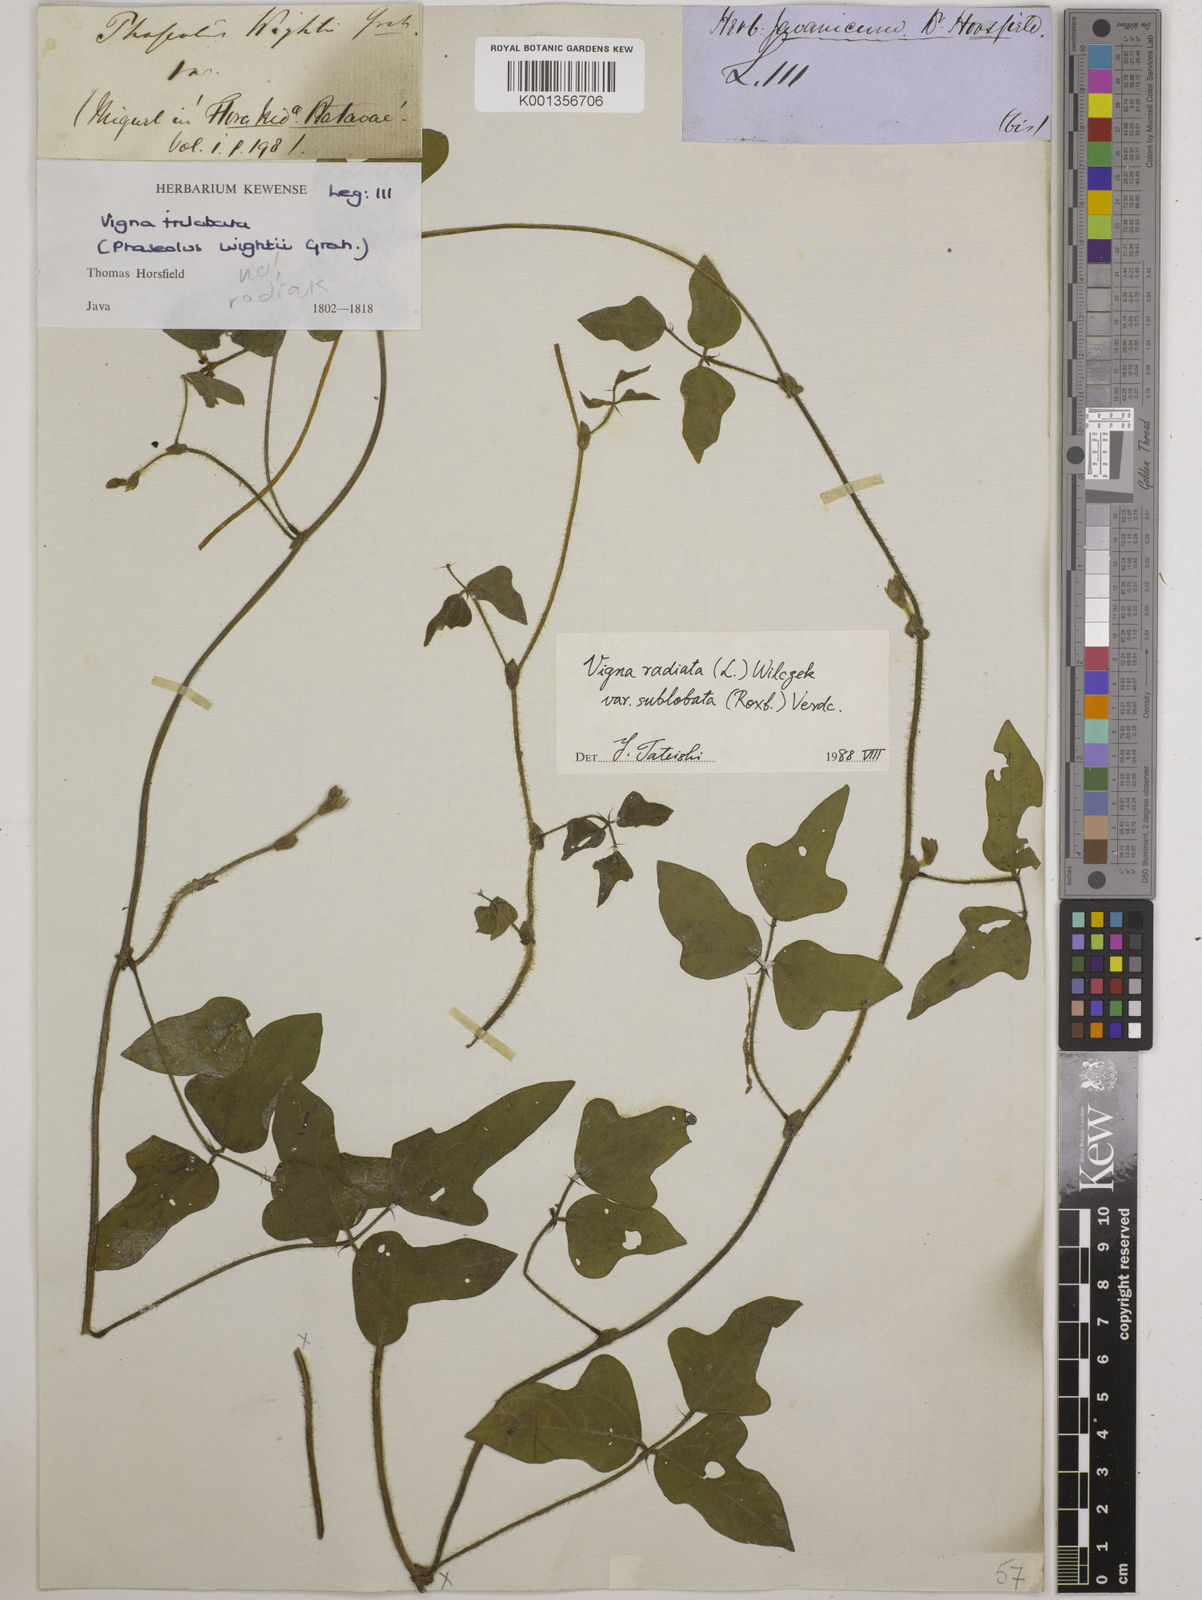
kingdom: Plantae
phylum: Tracheophyta
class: Magnoliopsida
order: Fabales
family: Fabaceae
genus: Vigna
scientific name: Vigna radiata
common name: Mung-bean
